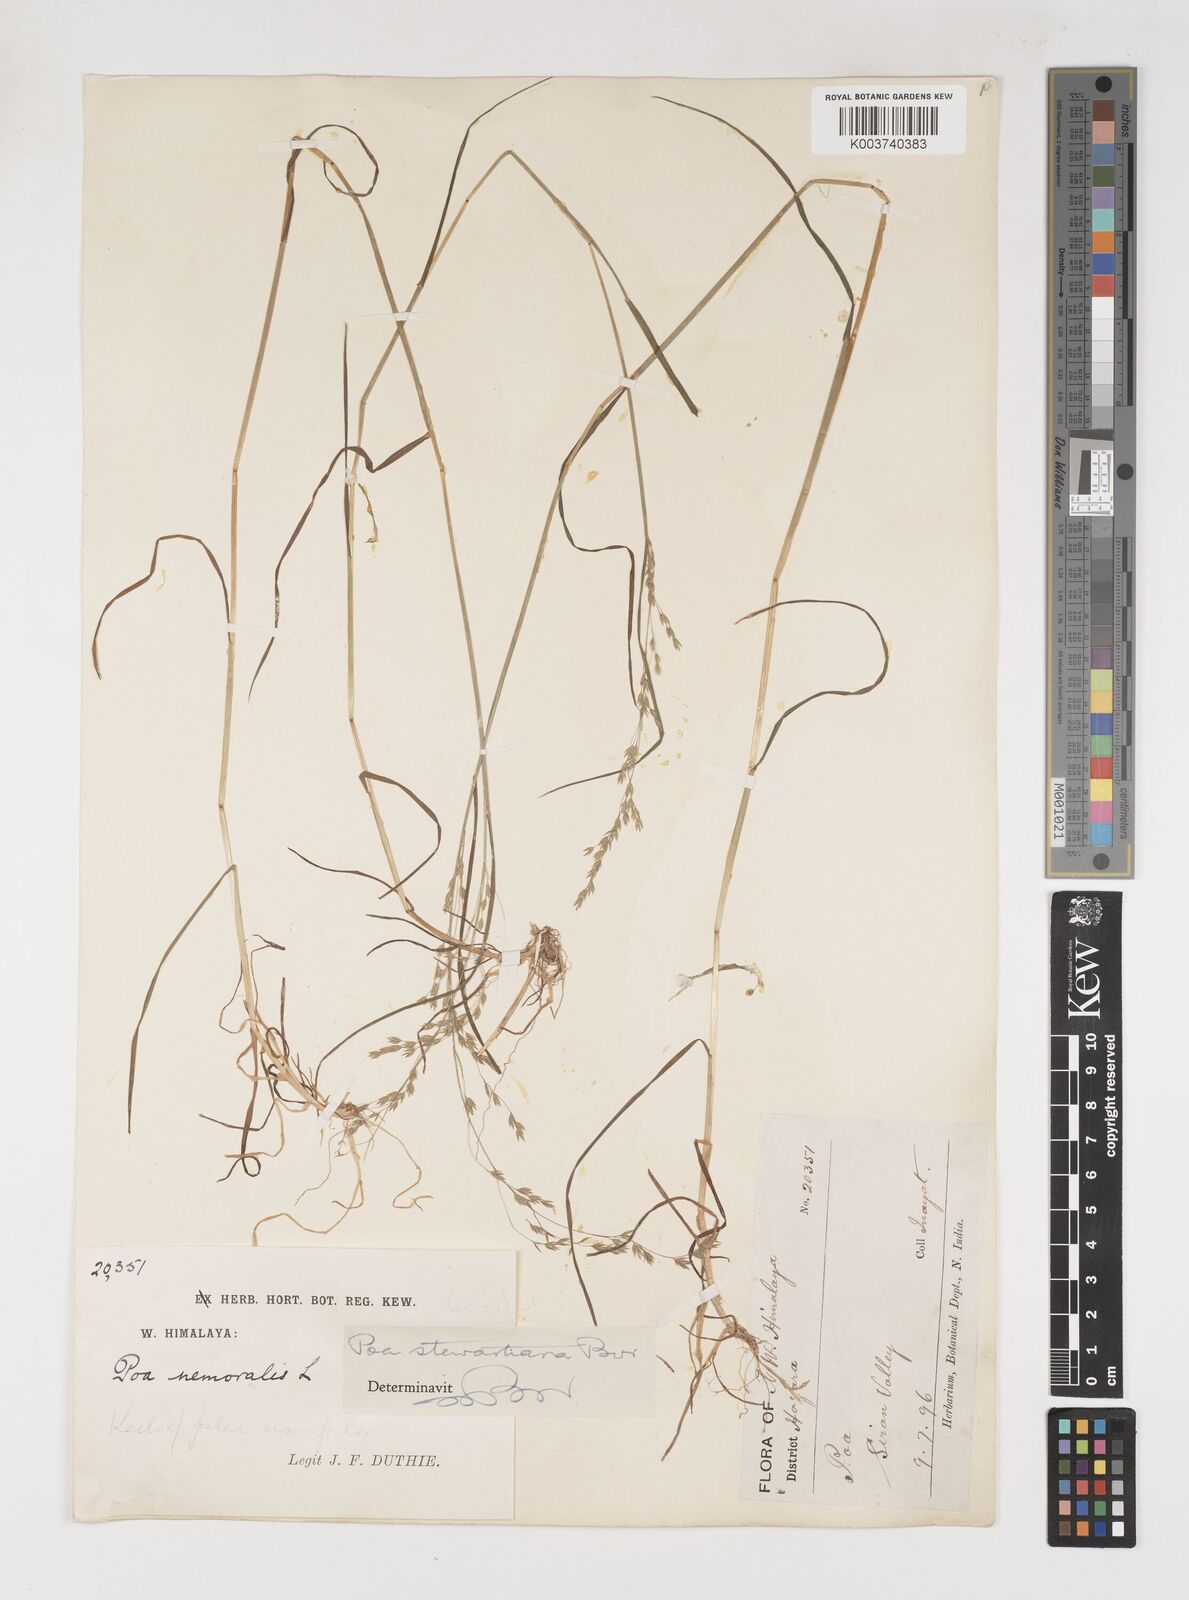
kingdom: Plantae
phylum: Tracheophyta
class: Liliopsida
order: Poales
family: Poaceae
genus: Poa
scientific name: Poa stewartiana
